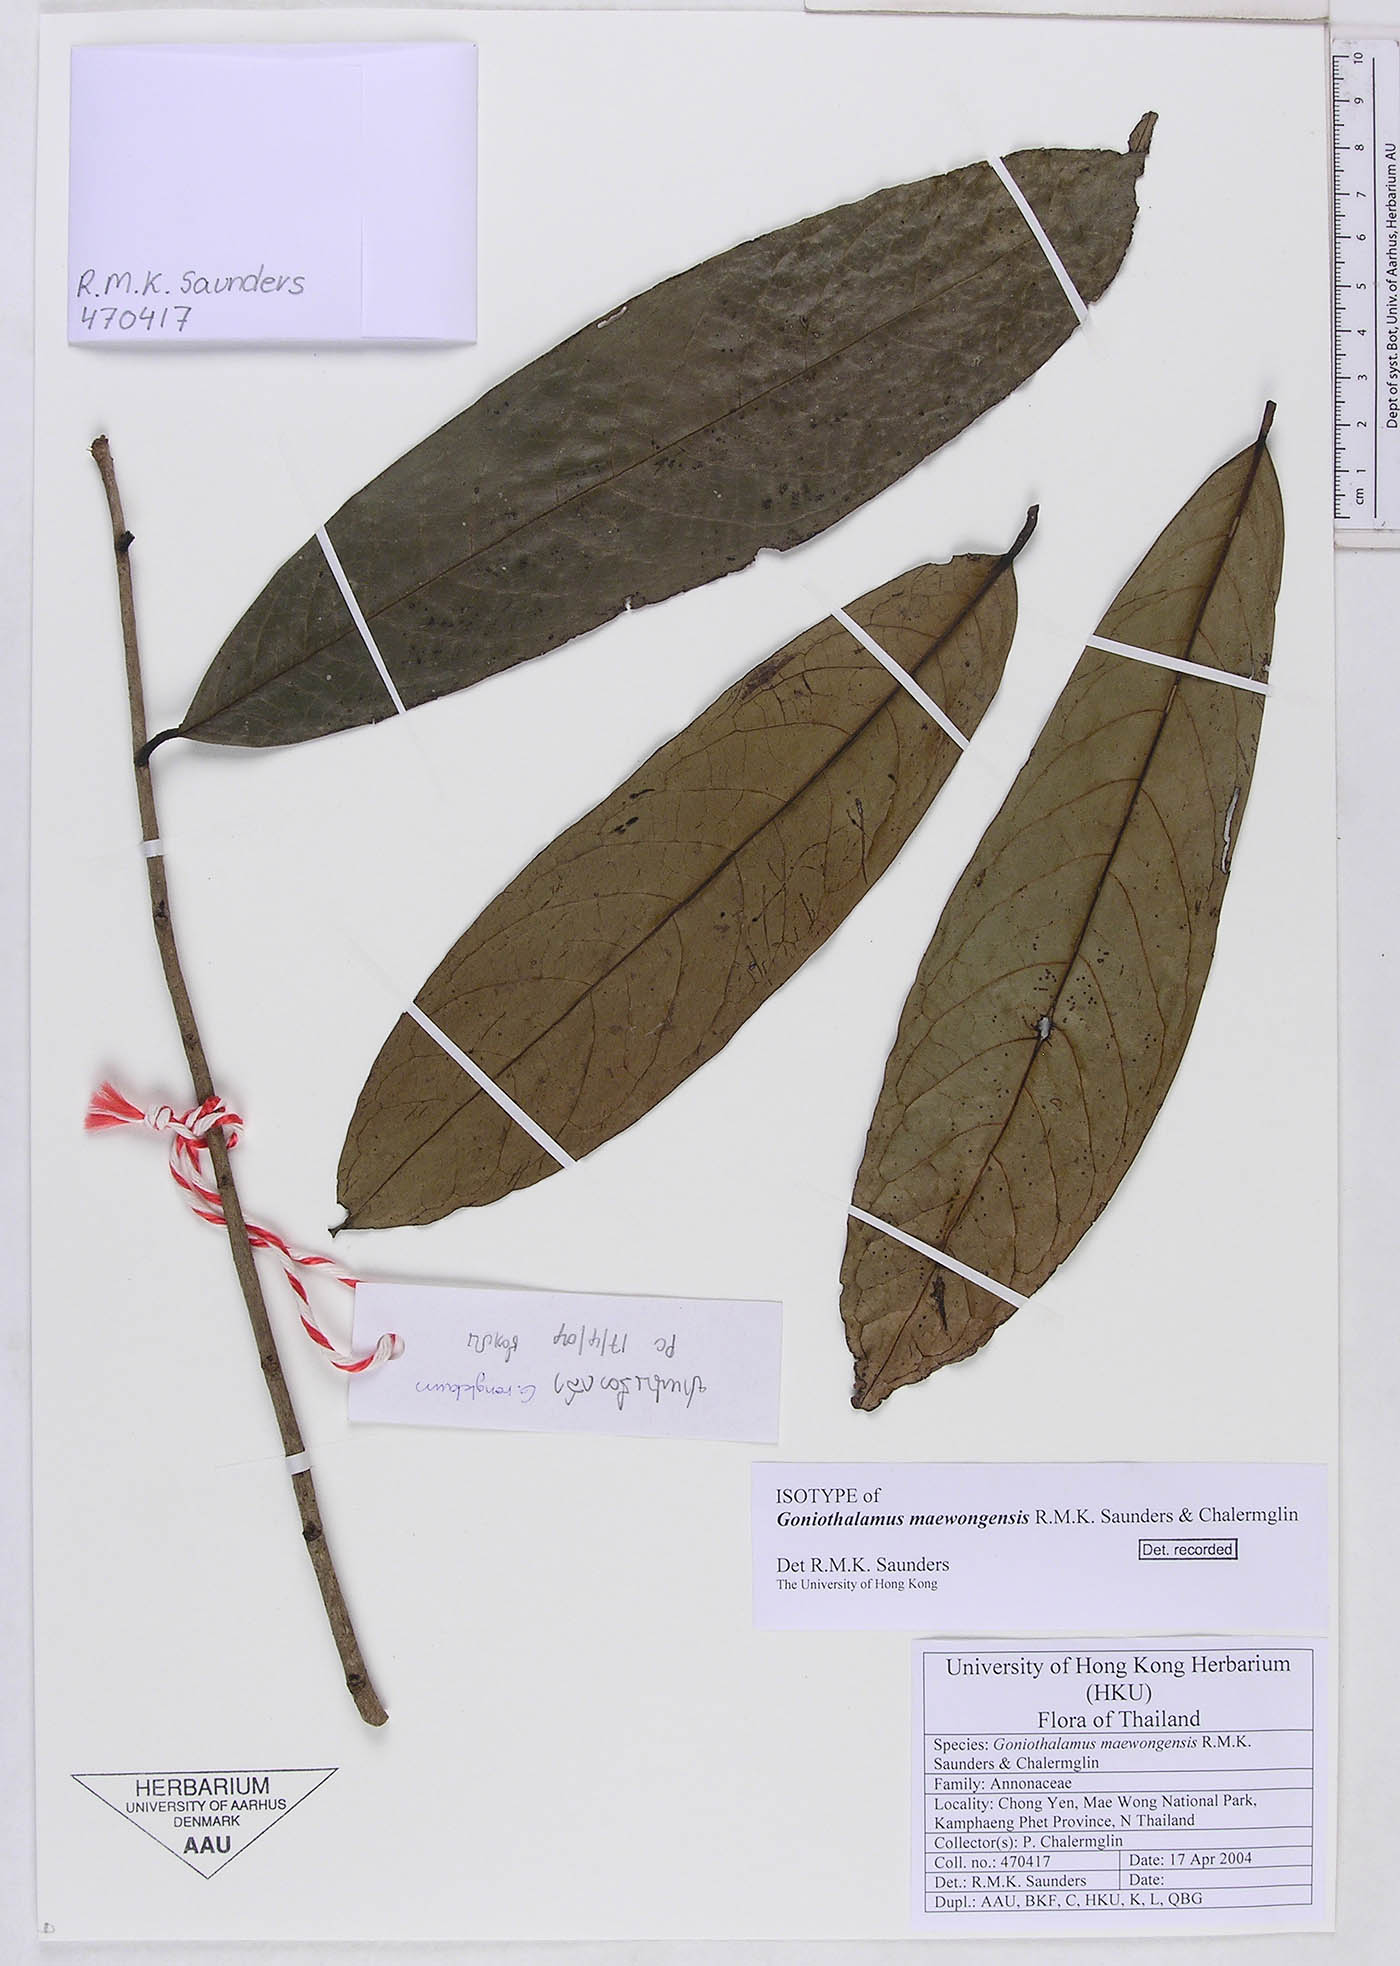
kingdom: Plantae
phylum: Tracheophyta
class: Magnoliopsida
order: Magnoliales
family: Annonaceae
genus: Goniothalamus
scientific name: Goniothalamus maewongensis
